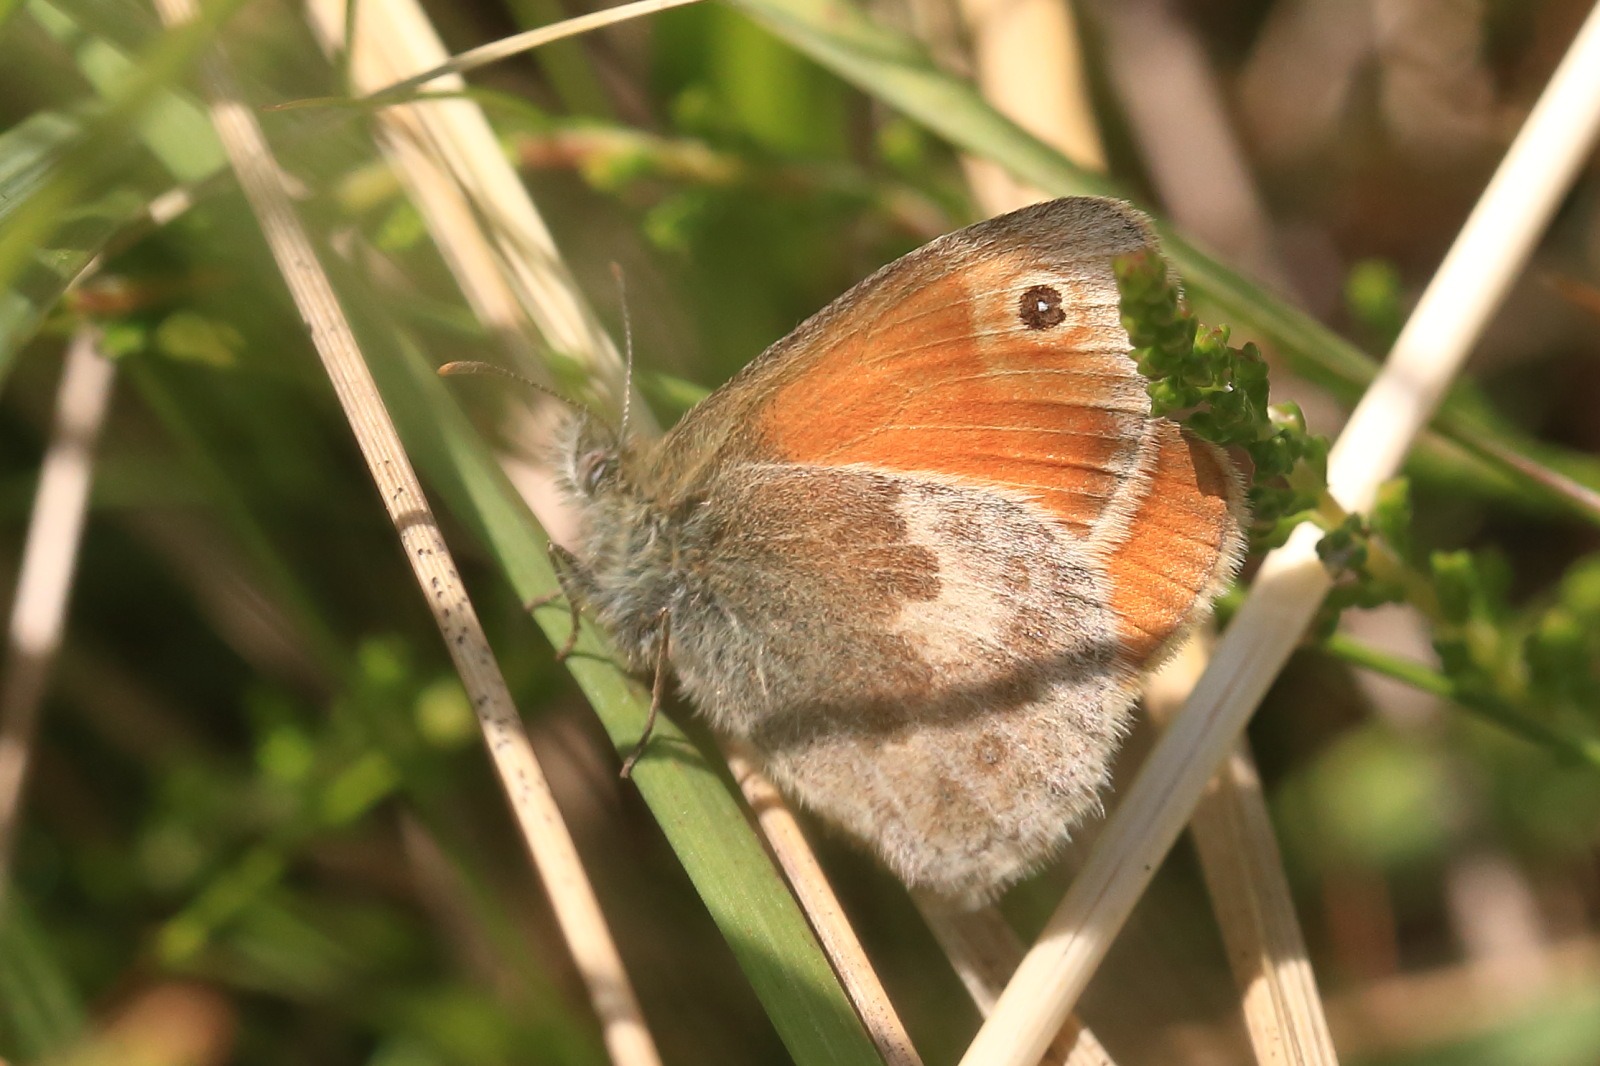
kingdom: Animalia
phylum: Arthropoda
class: Insecta
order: Lepidoptera
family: Nymphalidae
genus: Coenonympha
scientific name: Coenonympha pamphilus
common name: Okkergul randøje
